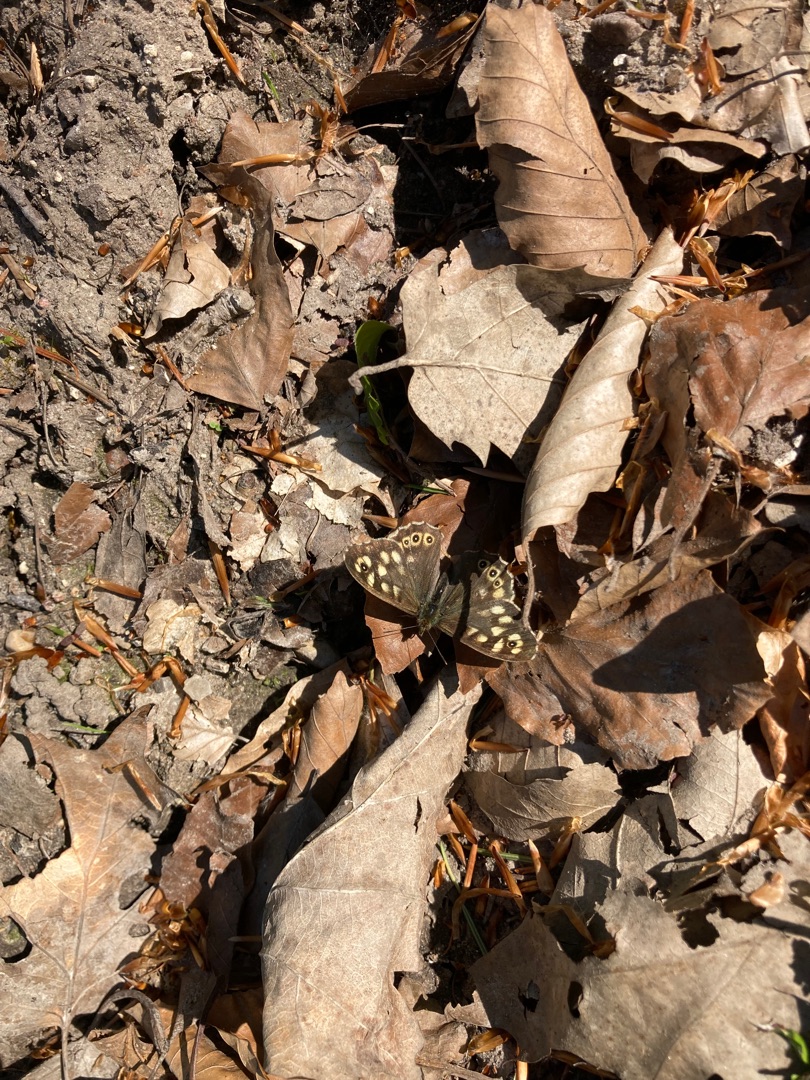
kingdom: Animalia
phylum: Arthropoda
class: Insecta
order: Lepidoptera
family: Nymphalidae
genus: Pararge
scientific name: Pararge aegeria
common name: Skovrandøje
